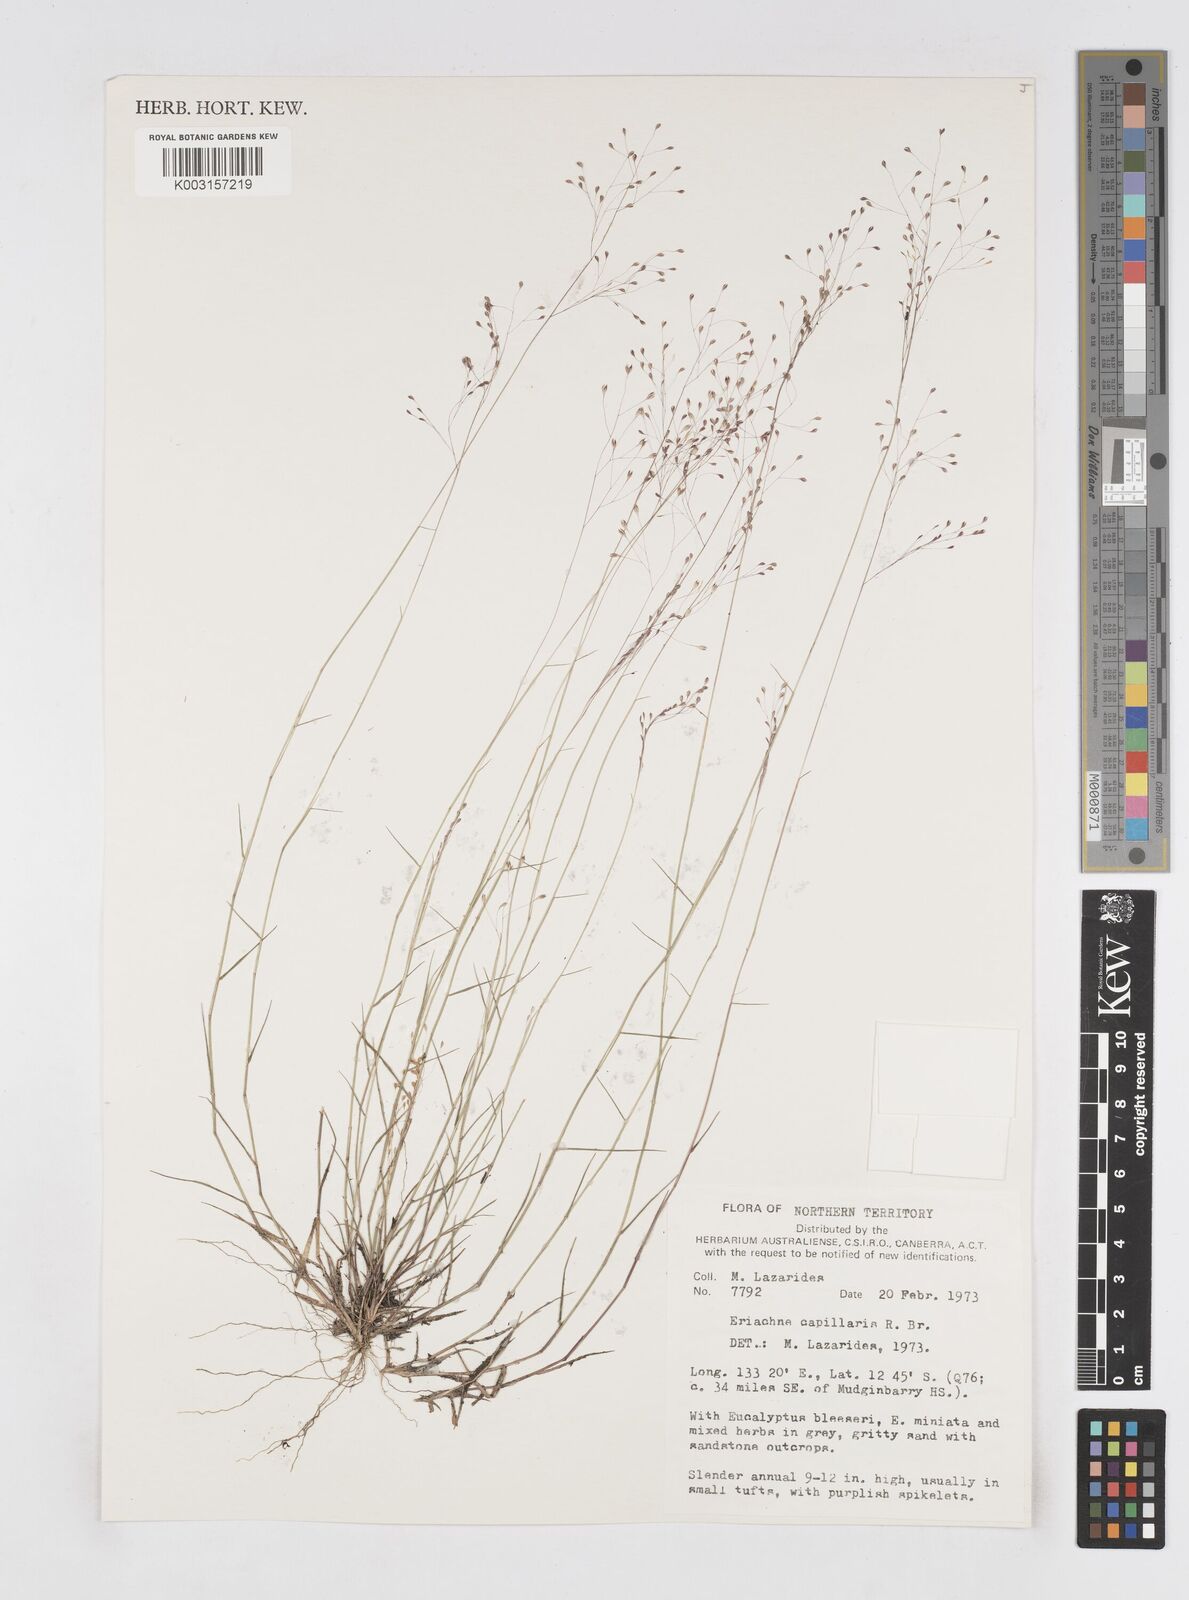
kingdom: Plantae
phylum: Tracheophyta
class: Liliopsida
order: Poales
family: Poaceae
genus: Eriachne
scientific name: Eriachne capillaris
